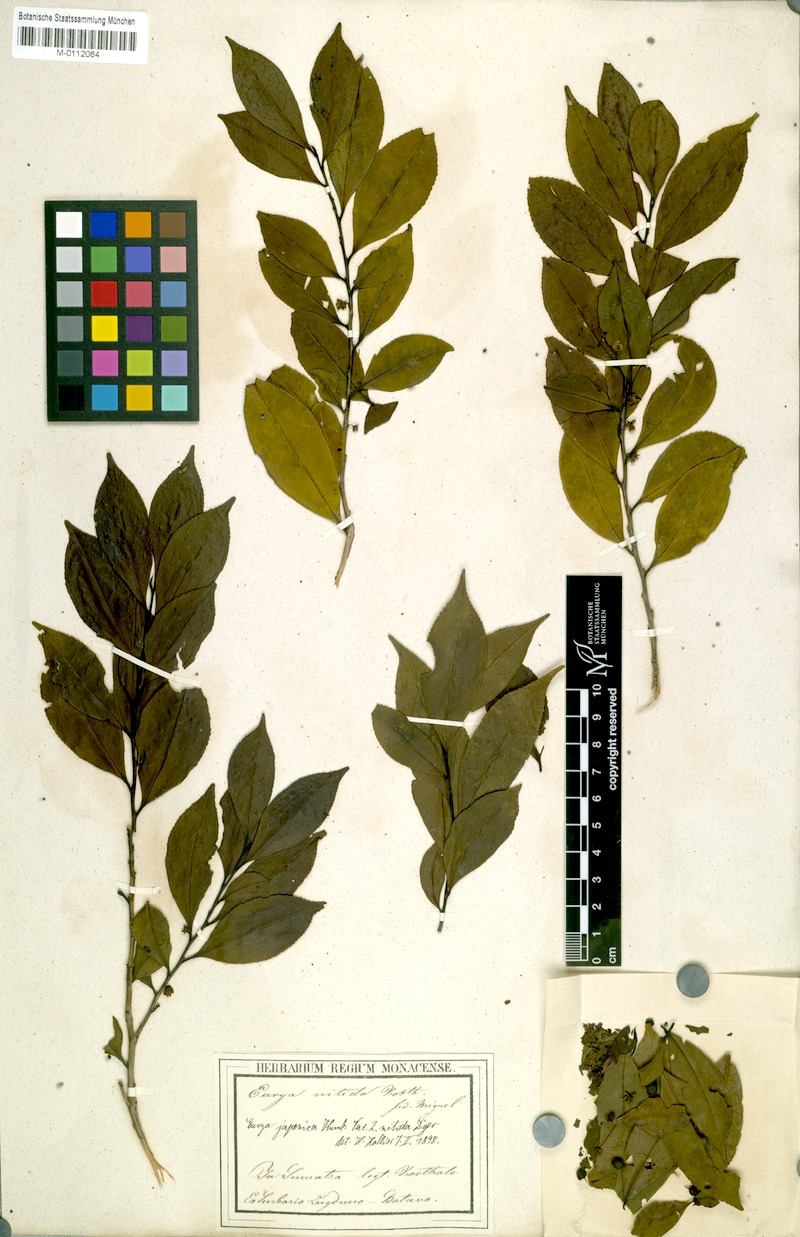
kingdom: Plantae
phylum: Tracheophyta
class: Magnoliopsida
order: Ericales
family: Pentaphylacaceae
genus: Eurya
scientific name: Eurya nitida
